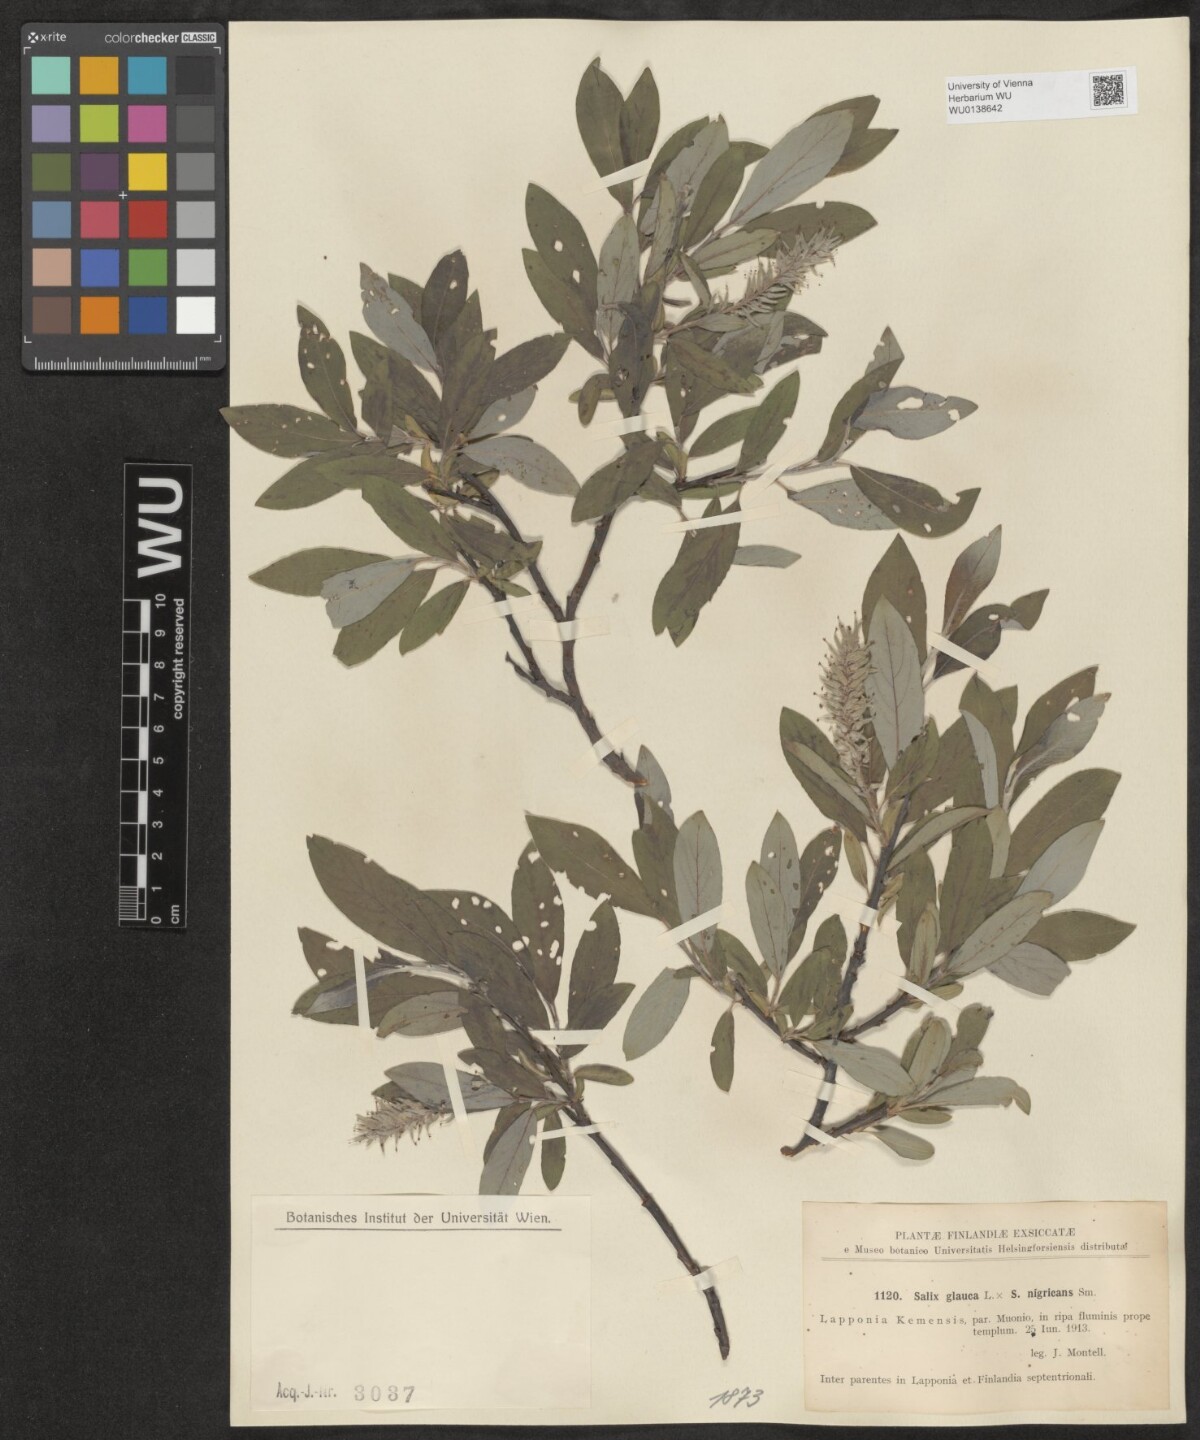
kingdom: Plantae
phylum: Tracheophyta
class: Magnoliopsida
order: Malpighiales
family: Salicaceae
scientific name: Salicaceae
